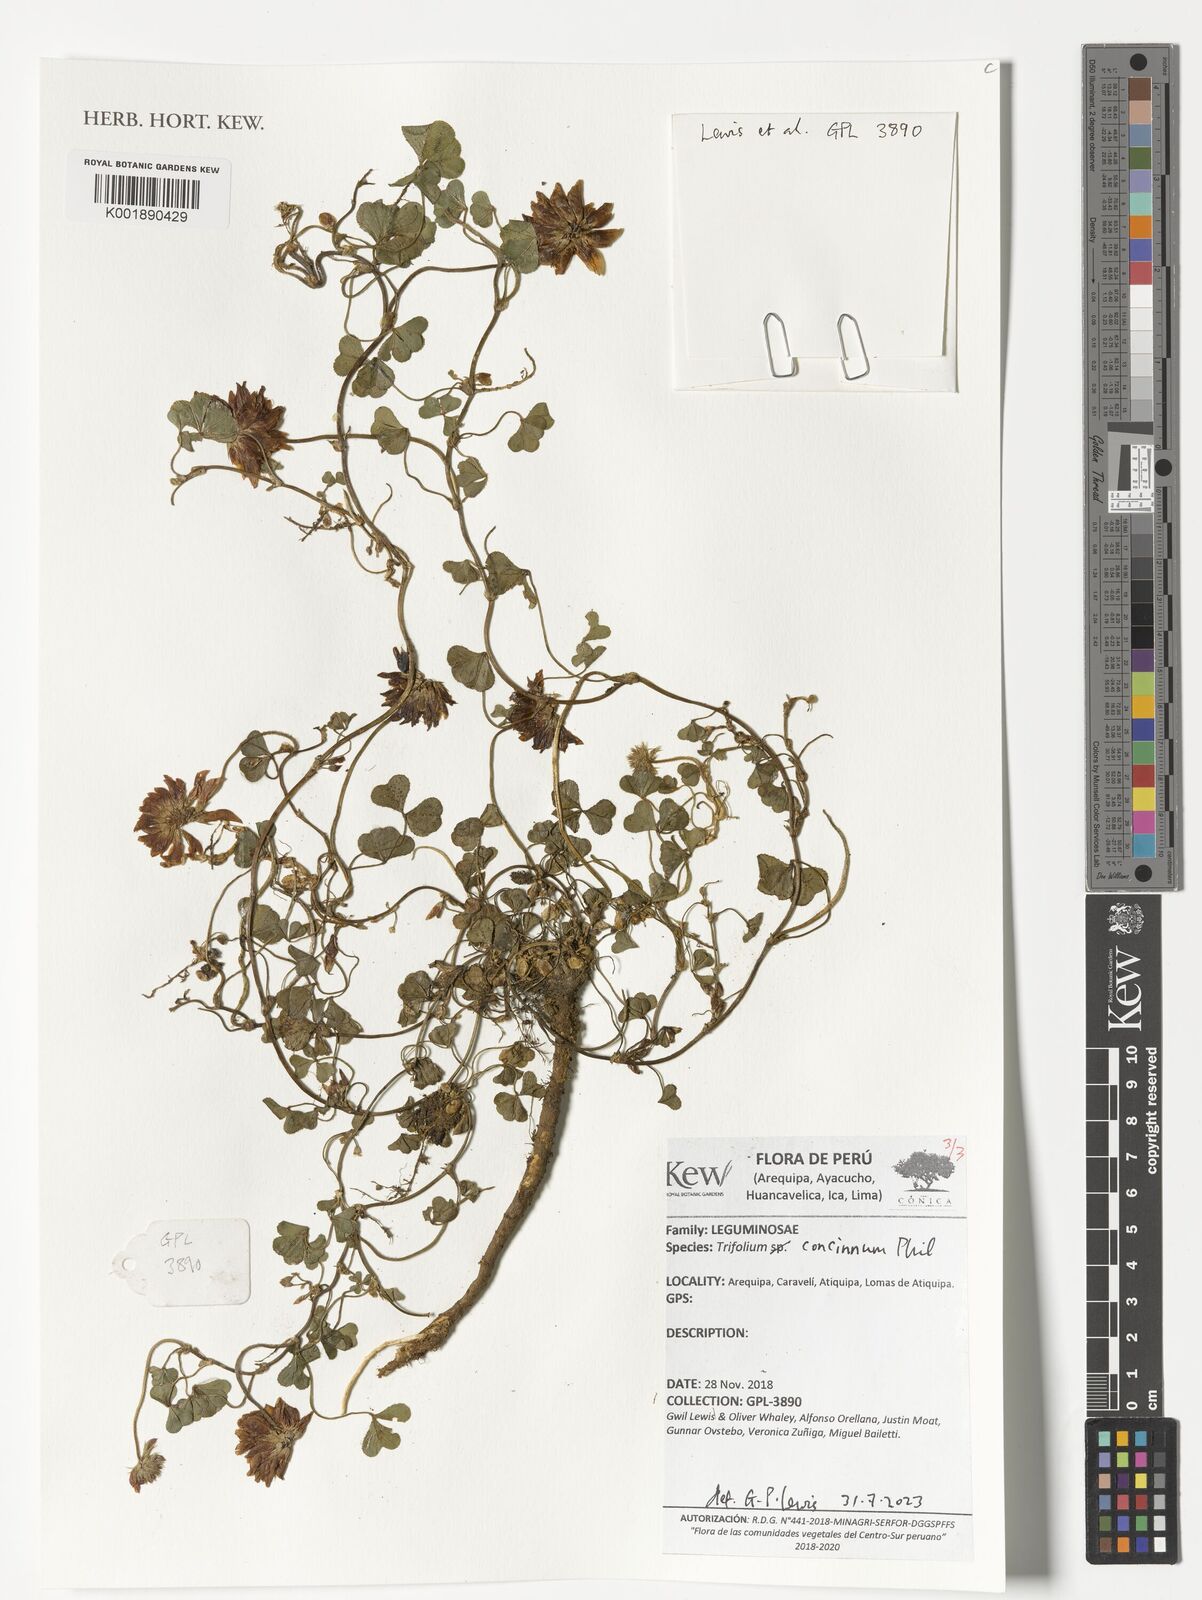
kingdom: Plantae
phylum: Tracheophyta
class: Magnoliopsida
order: Fabales
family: Fabaceae
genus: Trifolium
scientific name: Trifolium polymorphum
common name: Peanut clover
